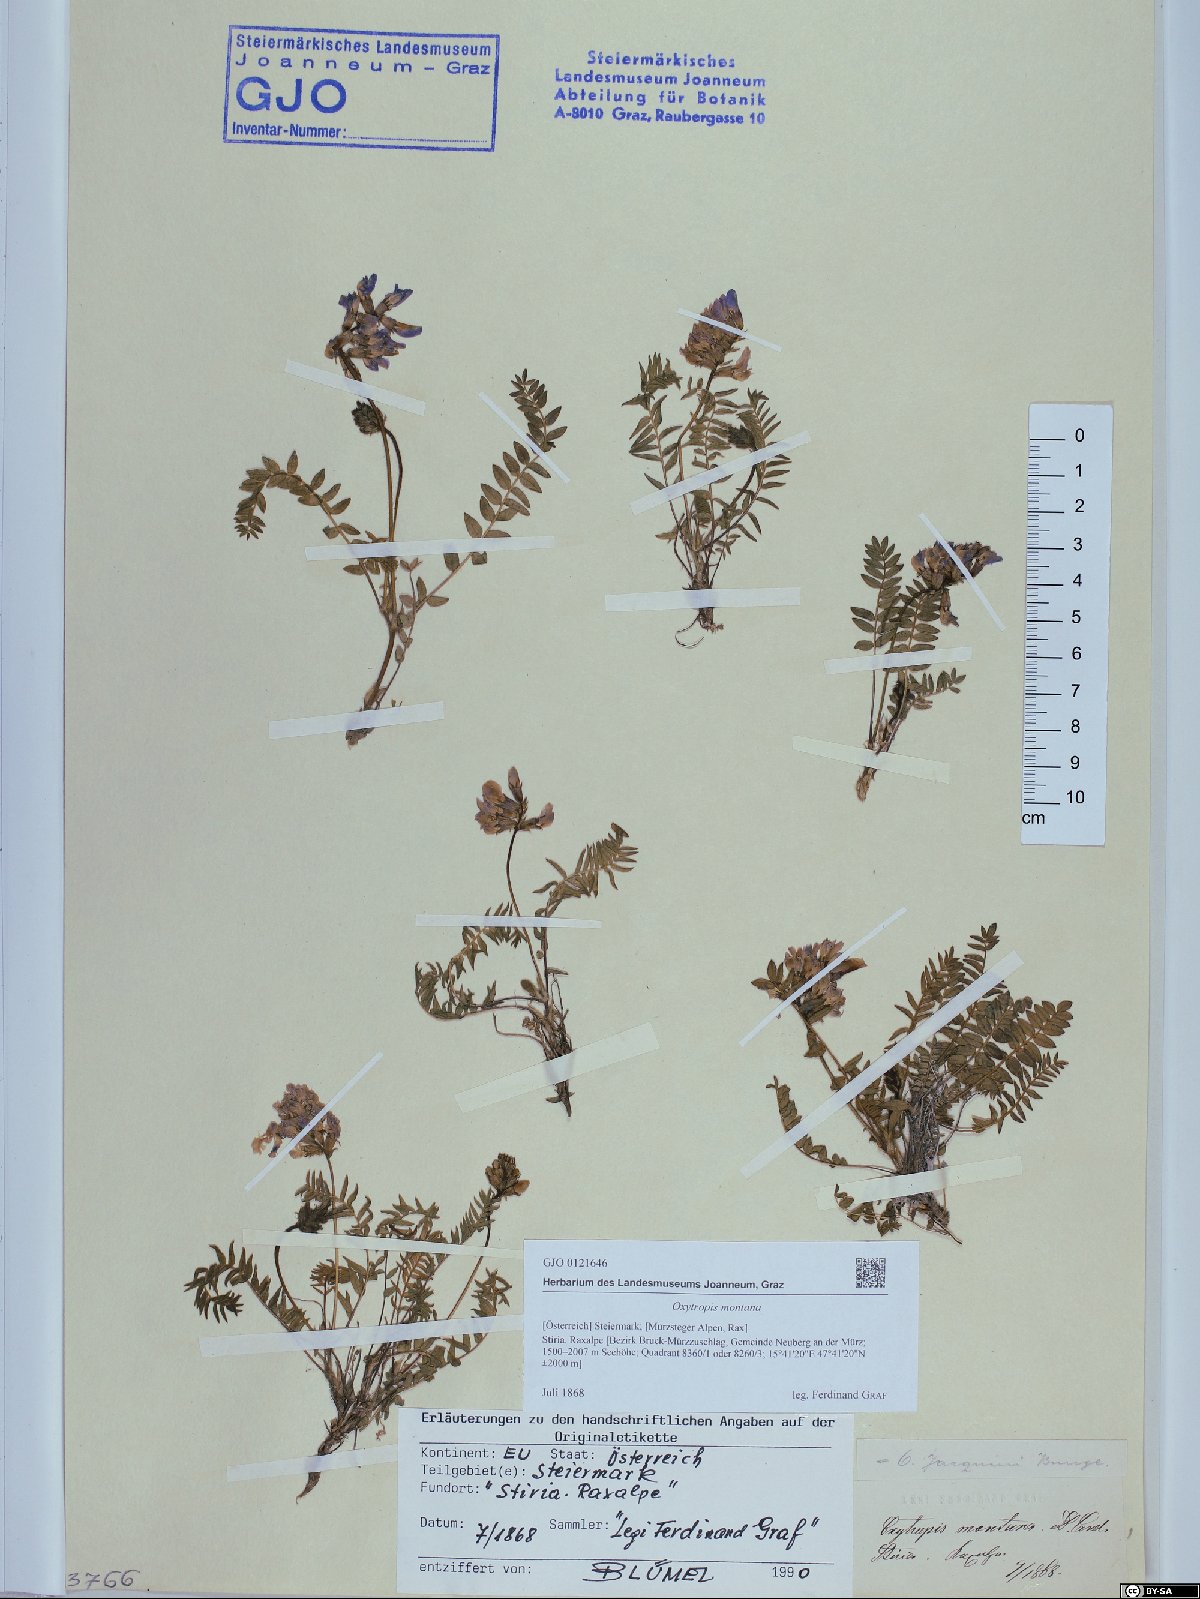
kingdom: Plantae
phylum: Tracheophyta
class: Magnoliopsida
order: Fabales
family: Fabaceae
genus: Oxytropis
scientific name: Oxytropis montana
